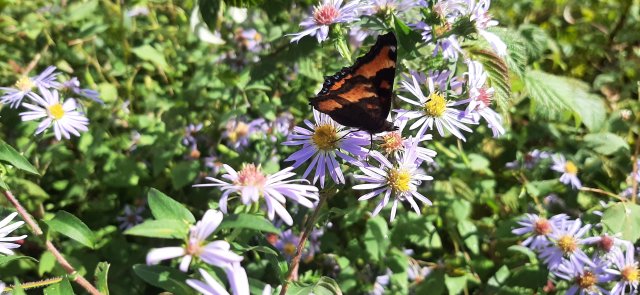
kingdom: Animalia
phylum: Arthropoda
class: Insecta
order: Lepidoptera
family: Nymphalidae
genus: Aglais
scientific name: Aglais milberti
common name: Milbert's Tortoiseshell
